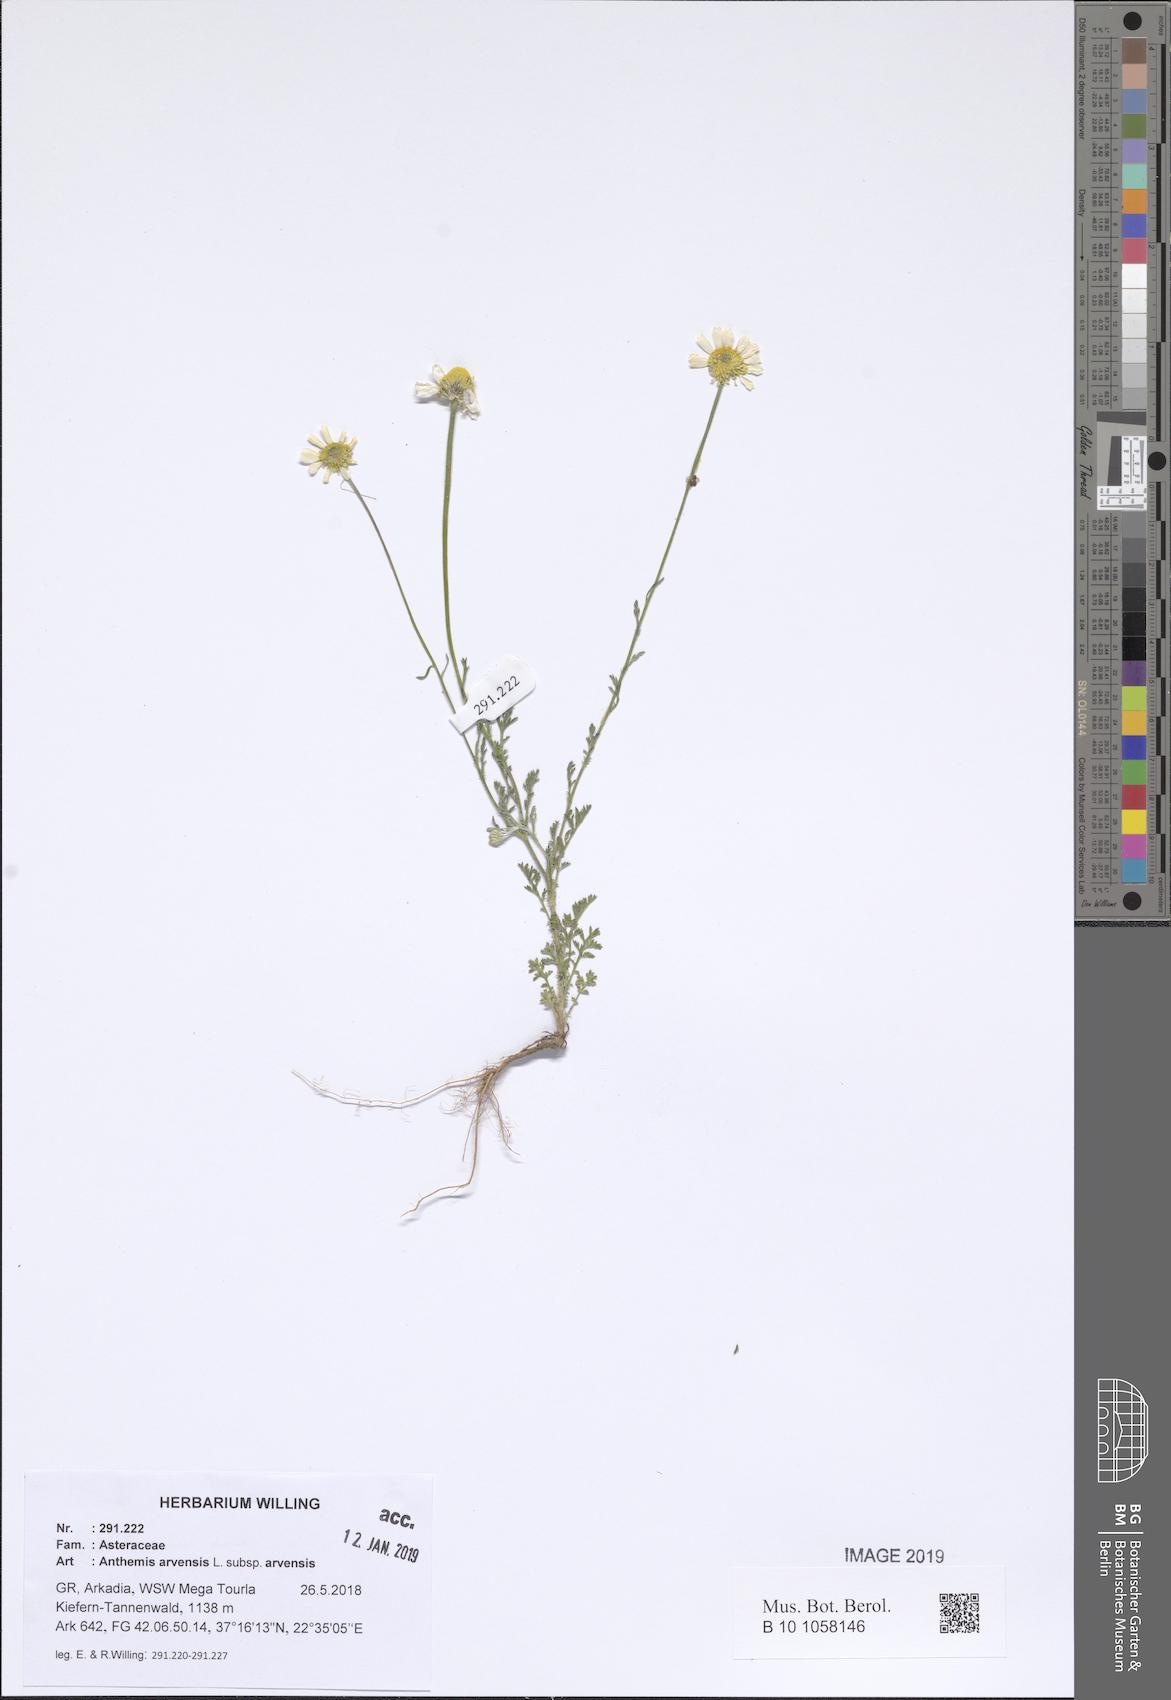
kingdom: Plantae
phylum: Tracheophyta
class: Magnoliopsida
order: Asterales
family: Asteraceae
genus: Anthemis
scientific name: Anthemis arvensis
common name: Corn chamomile
